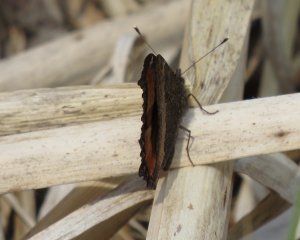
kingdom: Animalia
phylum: Arthropoda
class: Insecta
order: Lepidoptera
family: Nymphalidae
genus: Aglais
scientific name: Aglais milberti
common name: Milbert's Tortoiseshell
